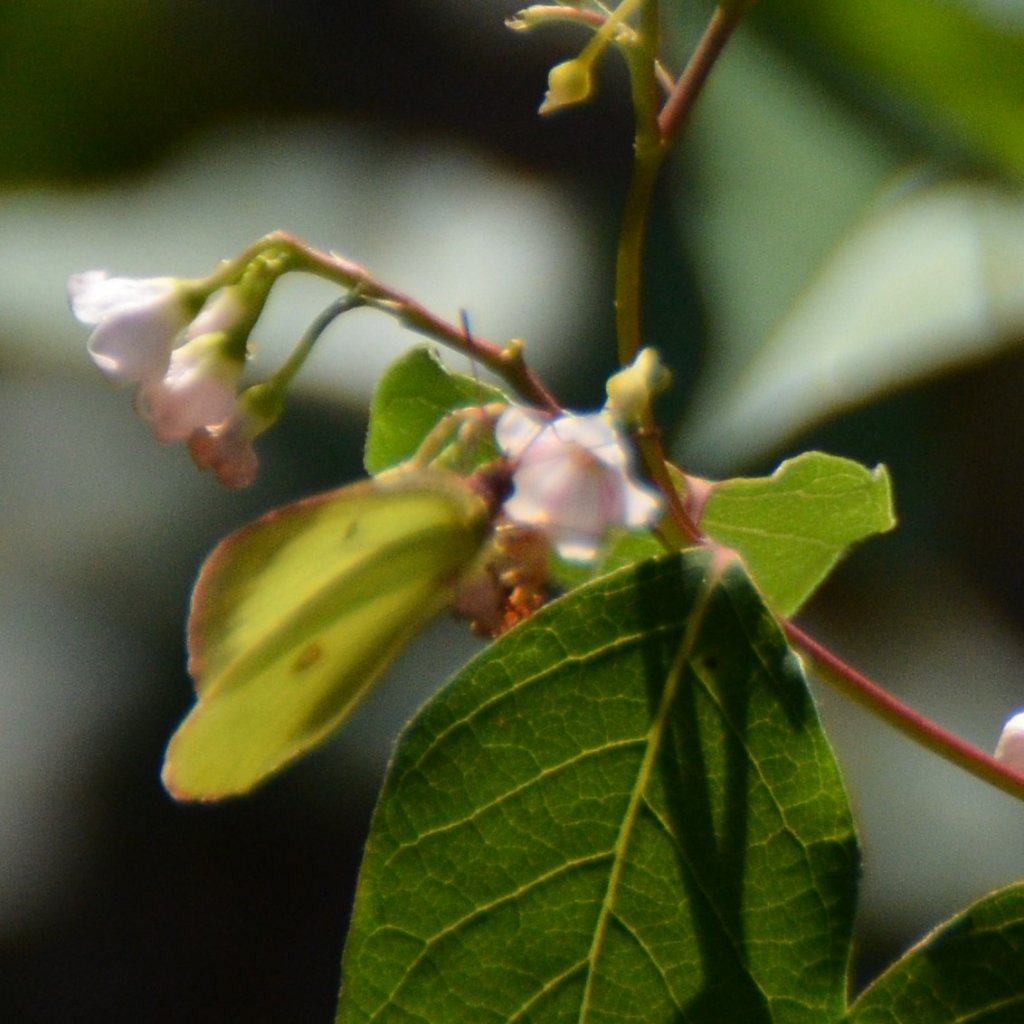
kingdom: Animalia
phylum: Arthropoda
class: Insecta
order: Lepidoptera
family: Pieridae
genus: Colias
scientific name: Colias interior
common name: Pink-edged Sulphur
